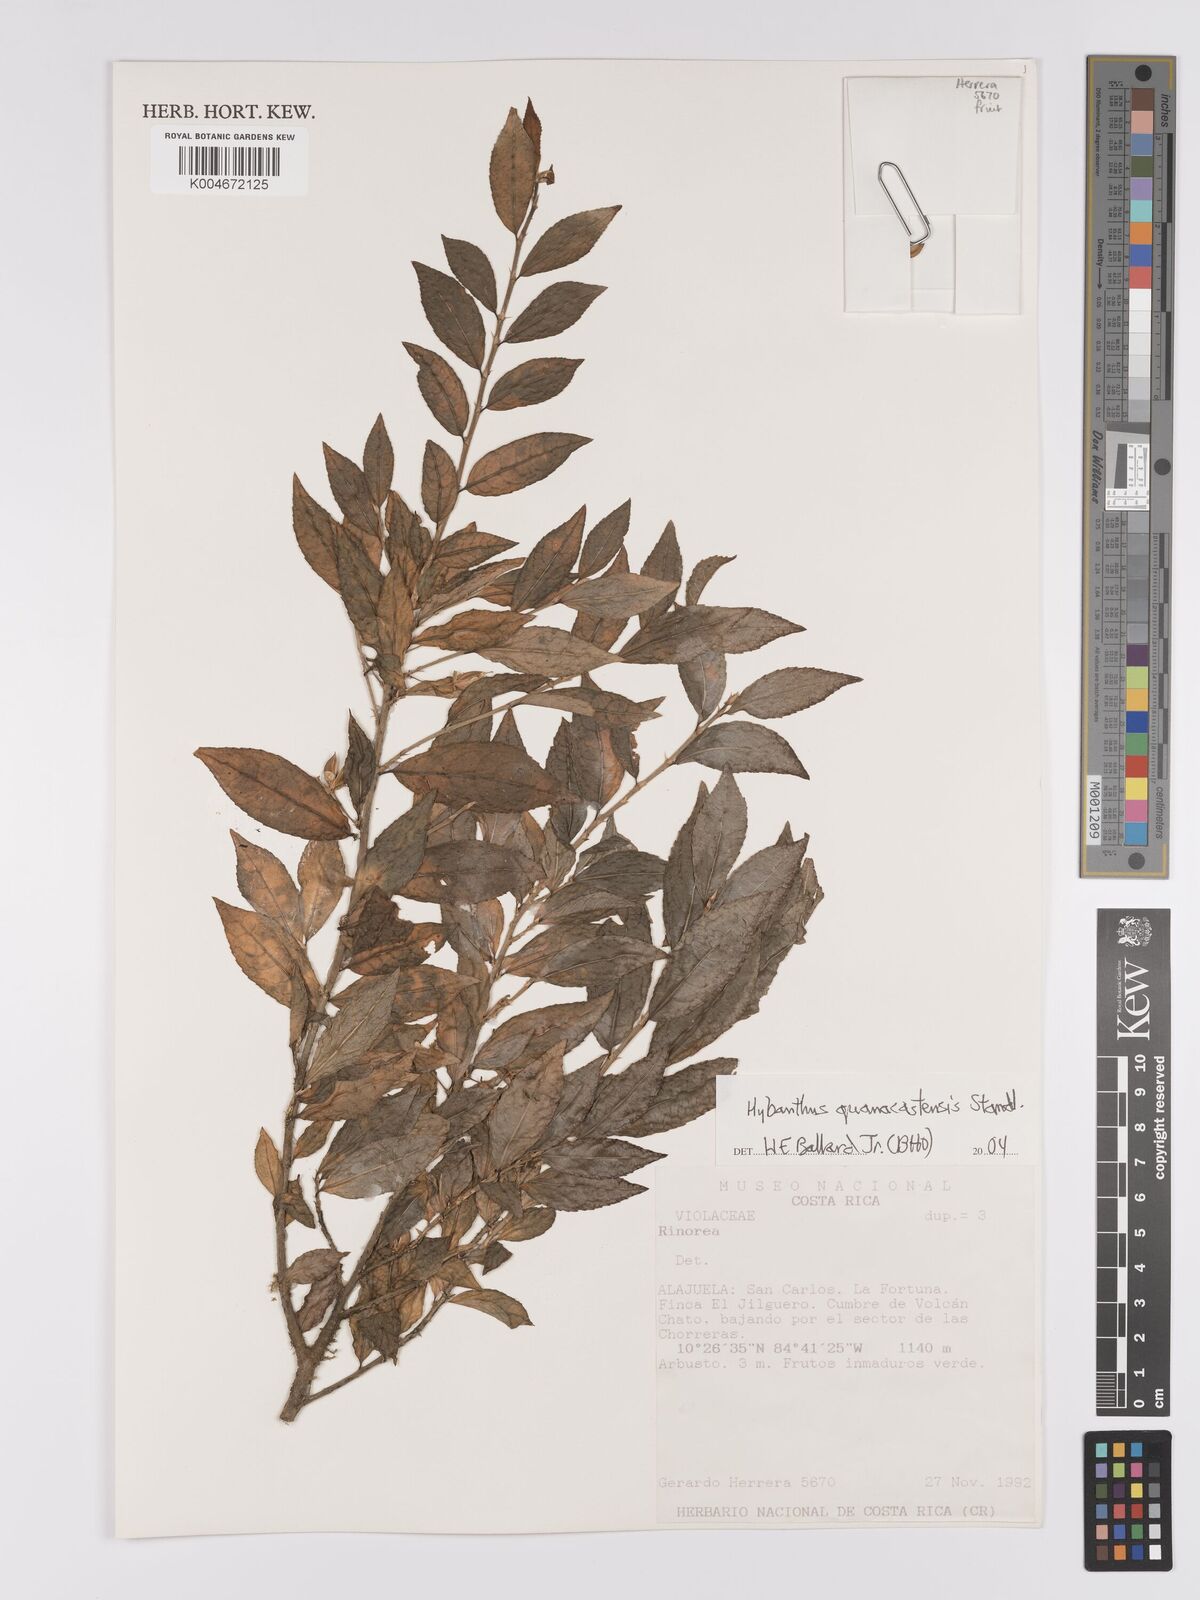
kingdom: Plantae
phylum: Tracheophyta
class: Magnoliopsida
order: Malpighiales
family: Violaceae
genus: Hybanthus
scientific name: Hybanthus guanacastensis
